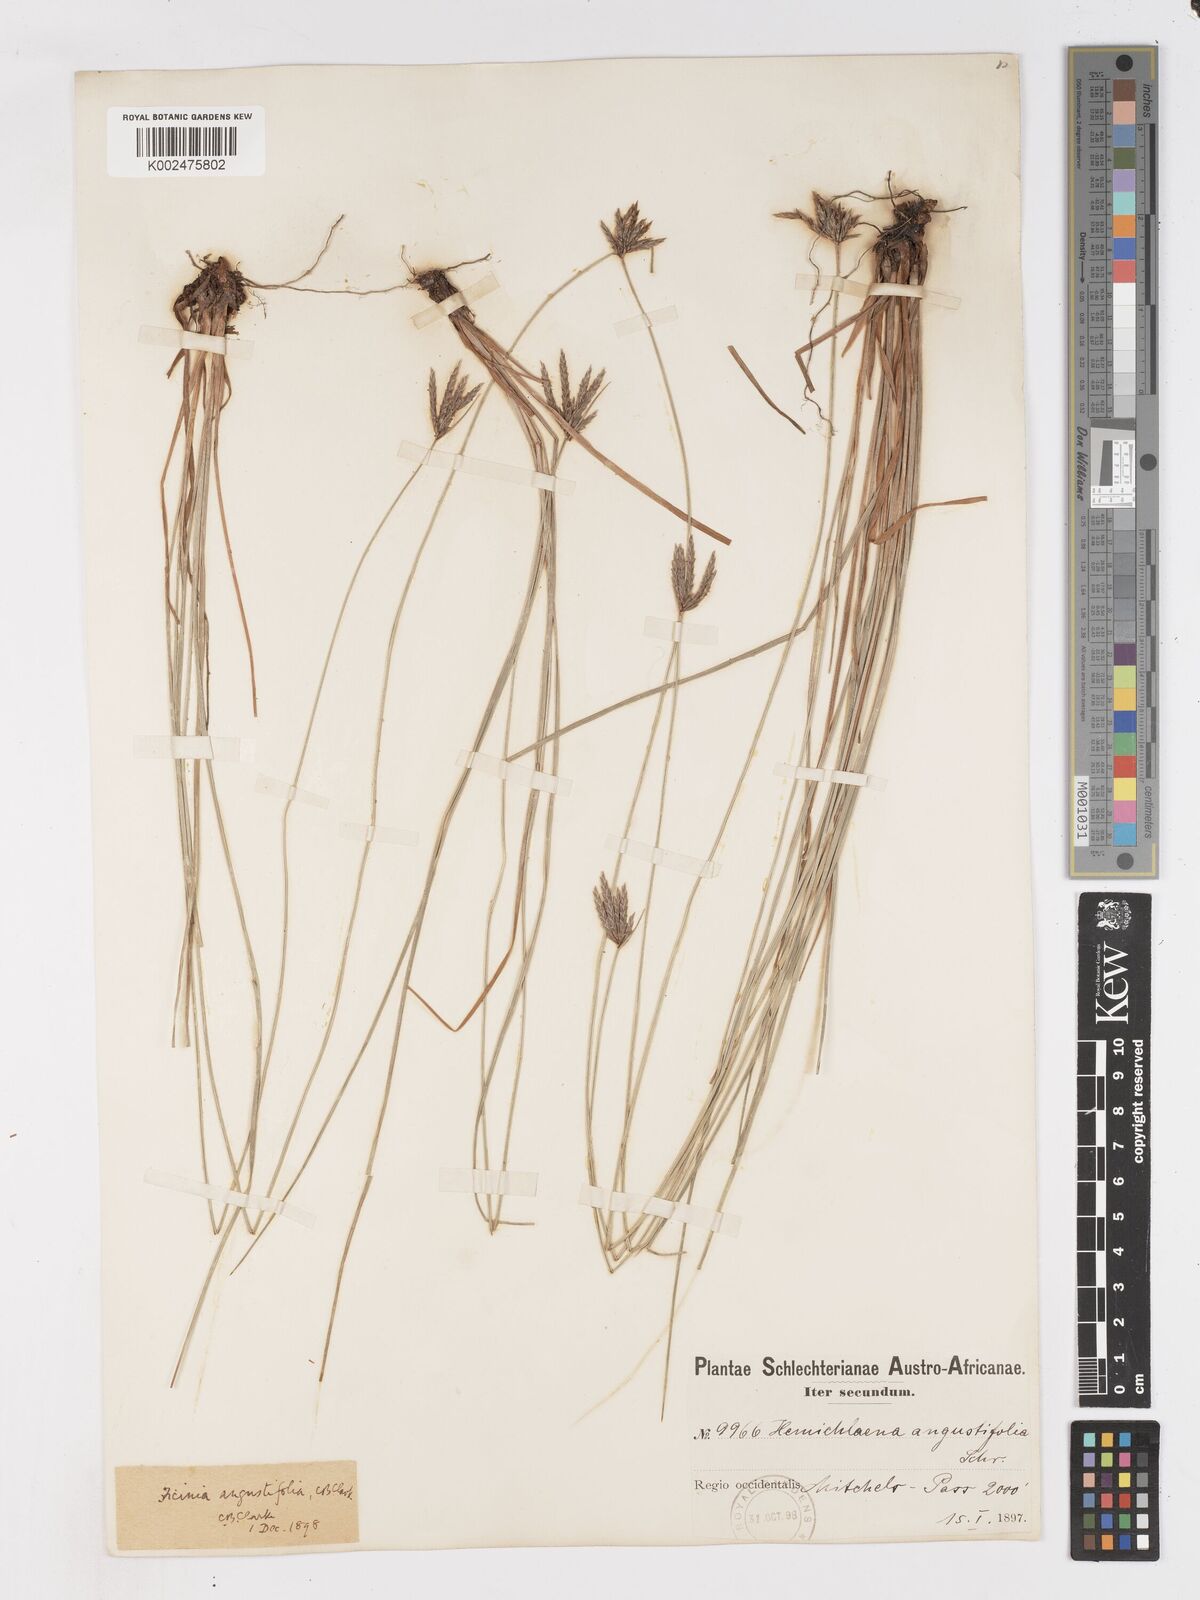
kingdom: Plantae
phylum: Tracheophyta
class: Liliopsida
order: Poales
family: Cyperaceae
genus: Ficinia
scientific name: Ficinia angustifolia
